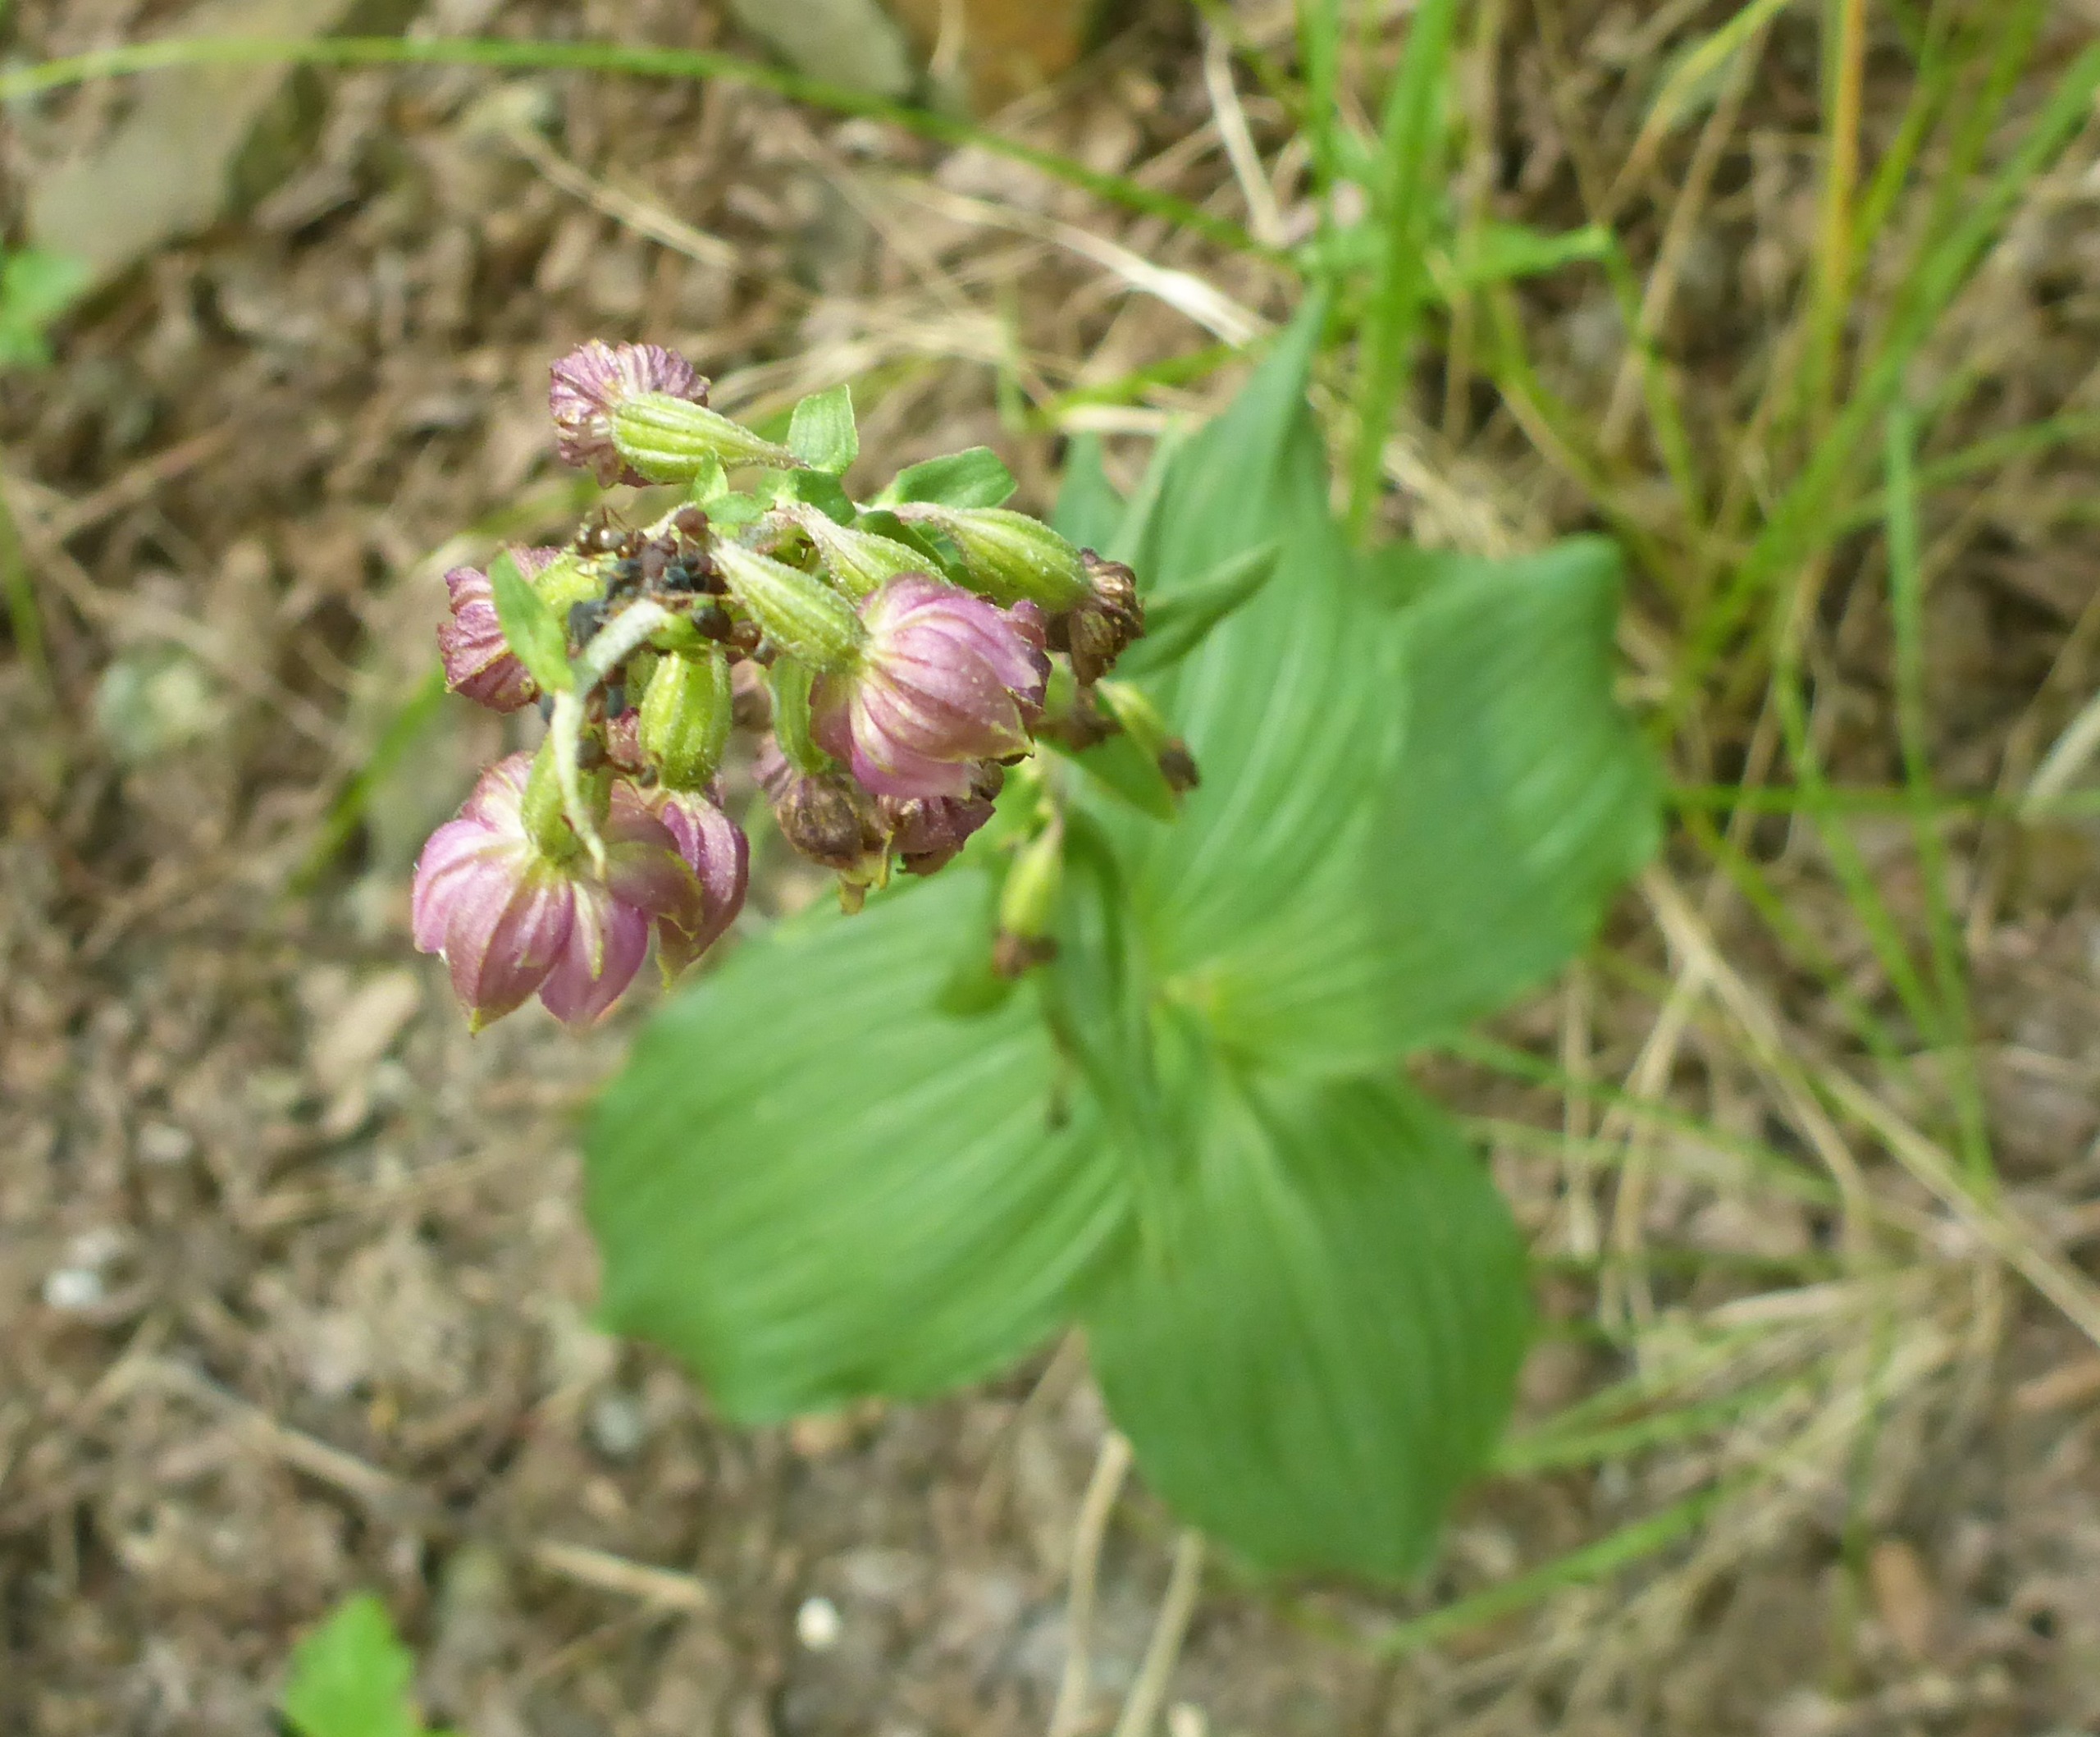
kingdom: Plantae
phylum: Tracheophyta
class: Liliopsida
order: Asparagales
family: Orchidaceae
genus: Epipactis
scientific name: Epipactis helleborine
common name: Skov-hullæbe
